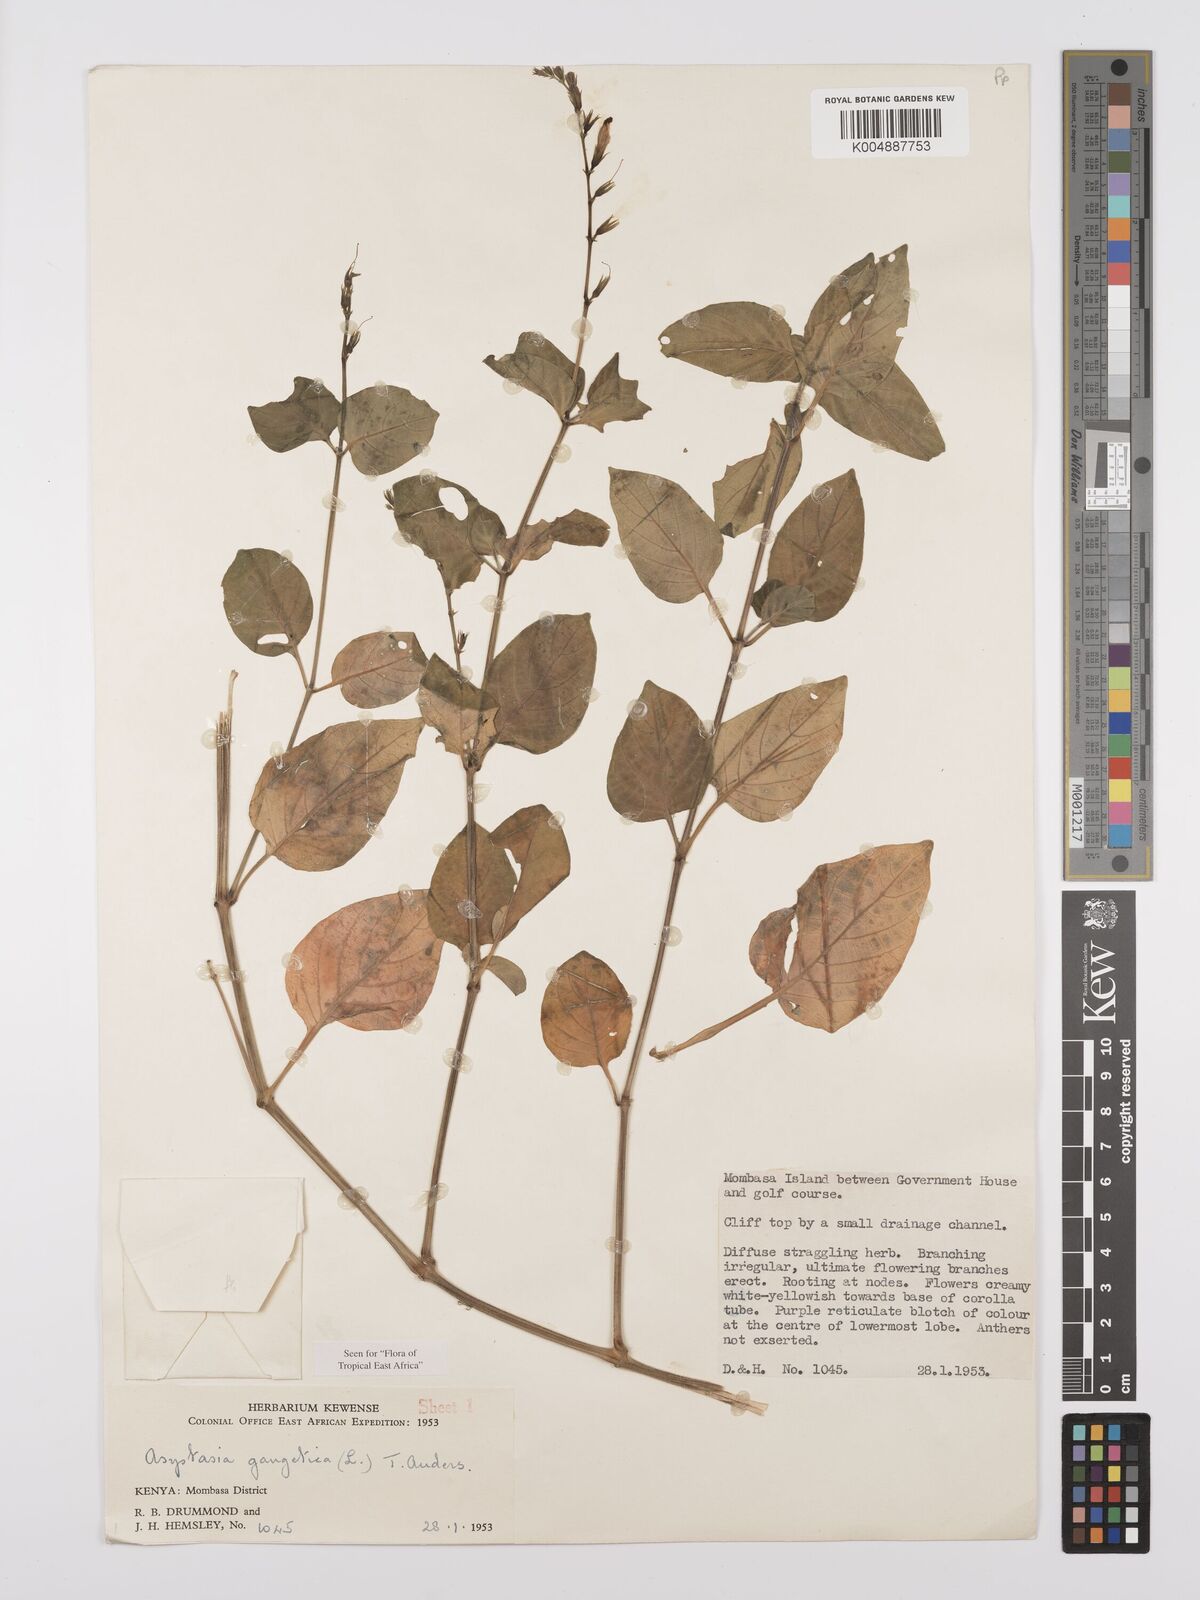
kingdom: Plantae
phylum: Tracheophyta
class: Magnoliopsida
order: Lamiales
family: Acanthaceae
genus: Asystasia
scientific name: Asystasia gangetica
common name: Chinese violet
